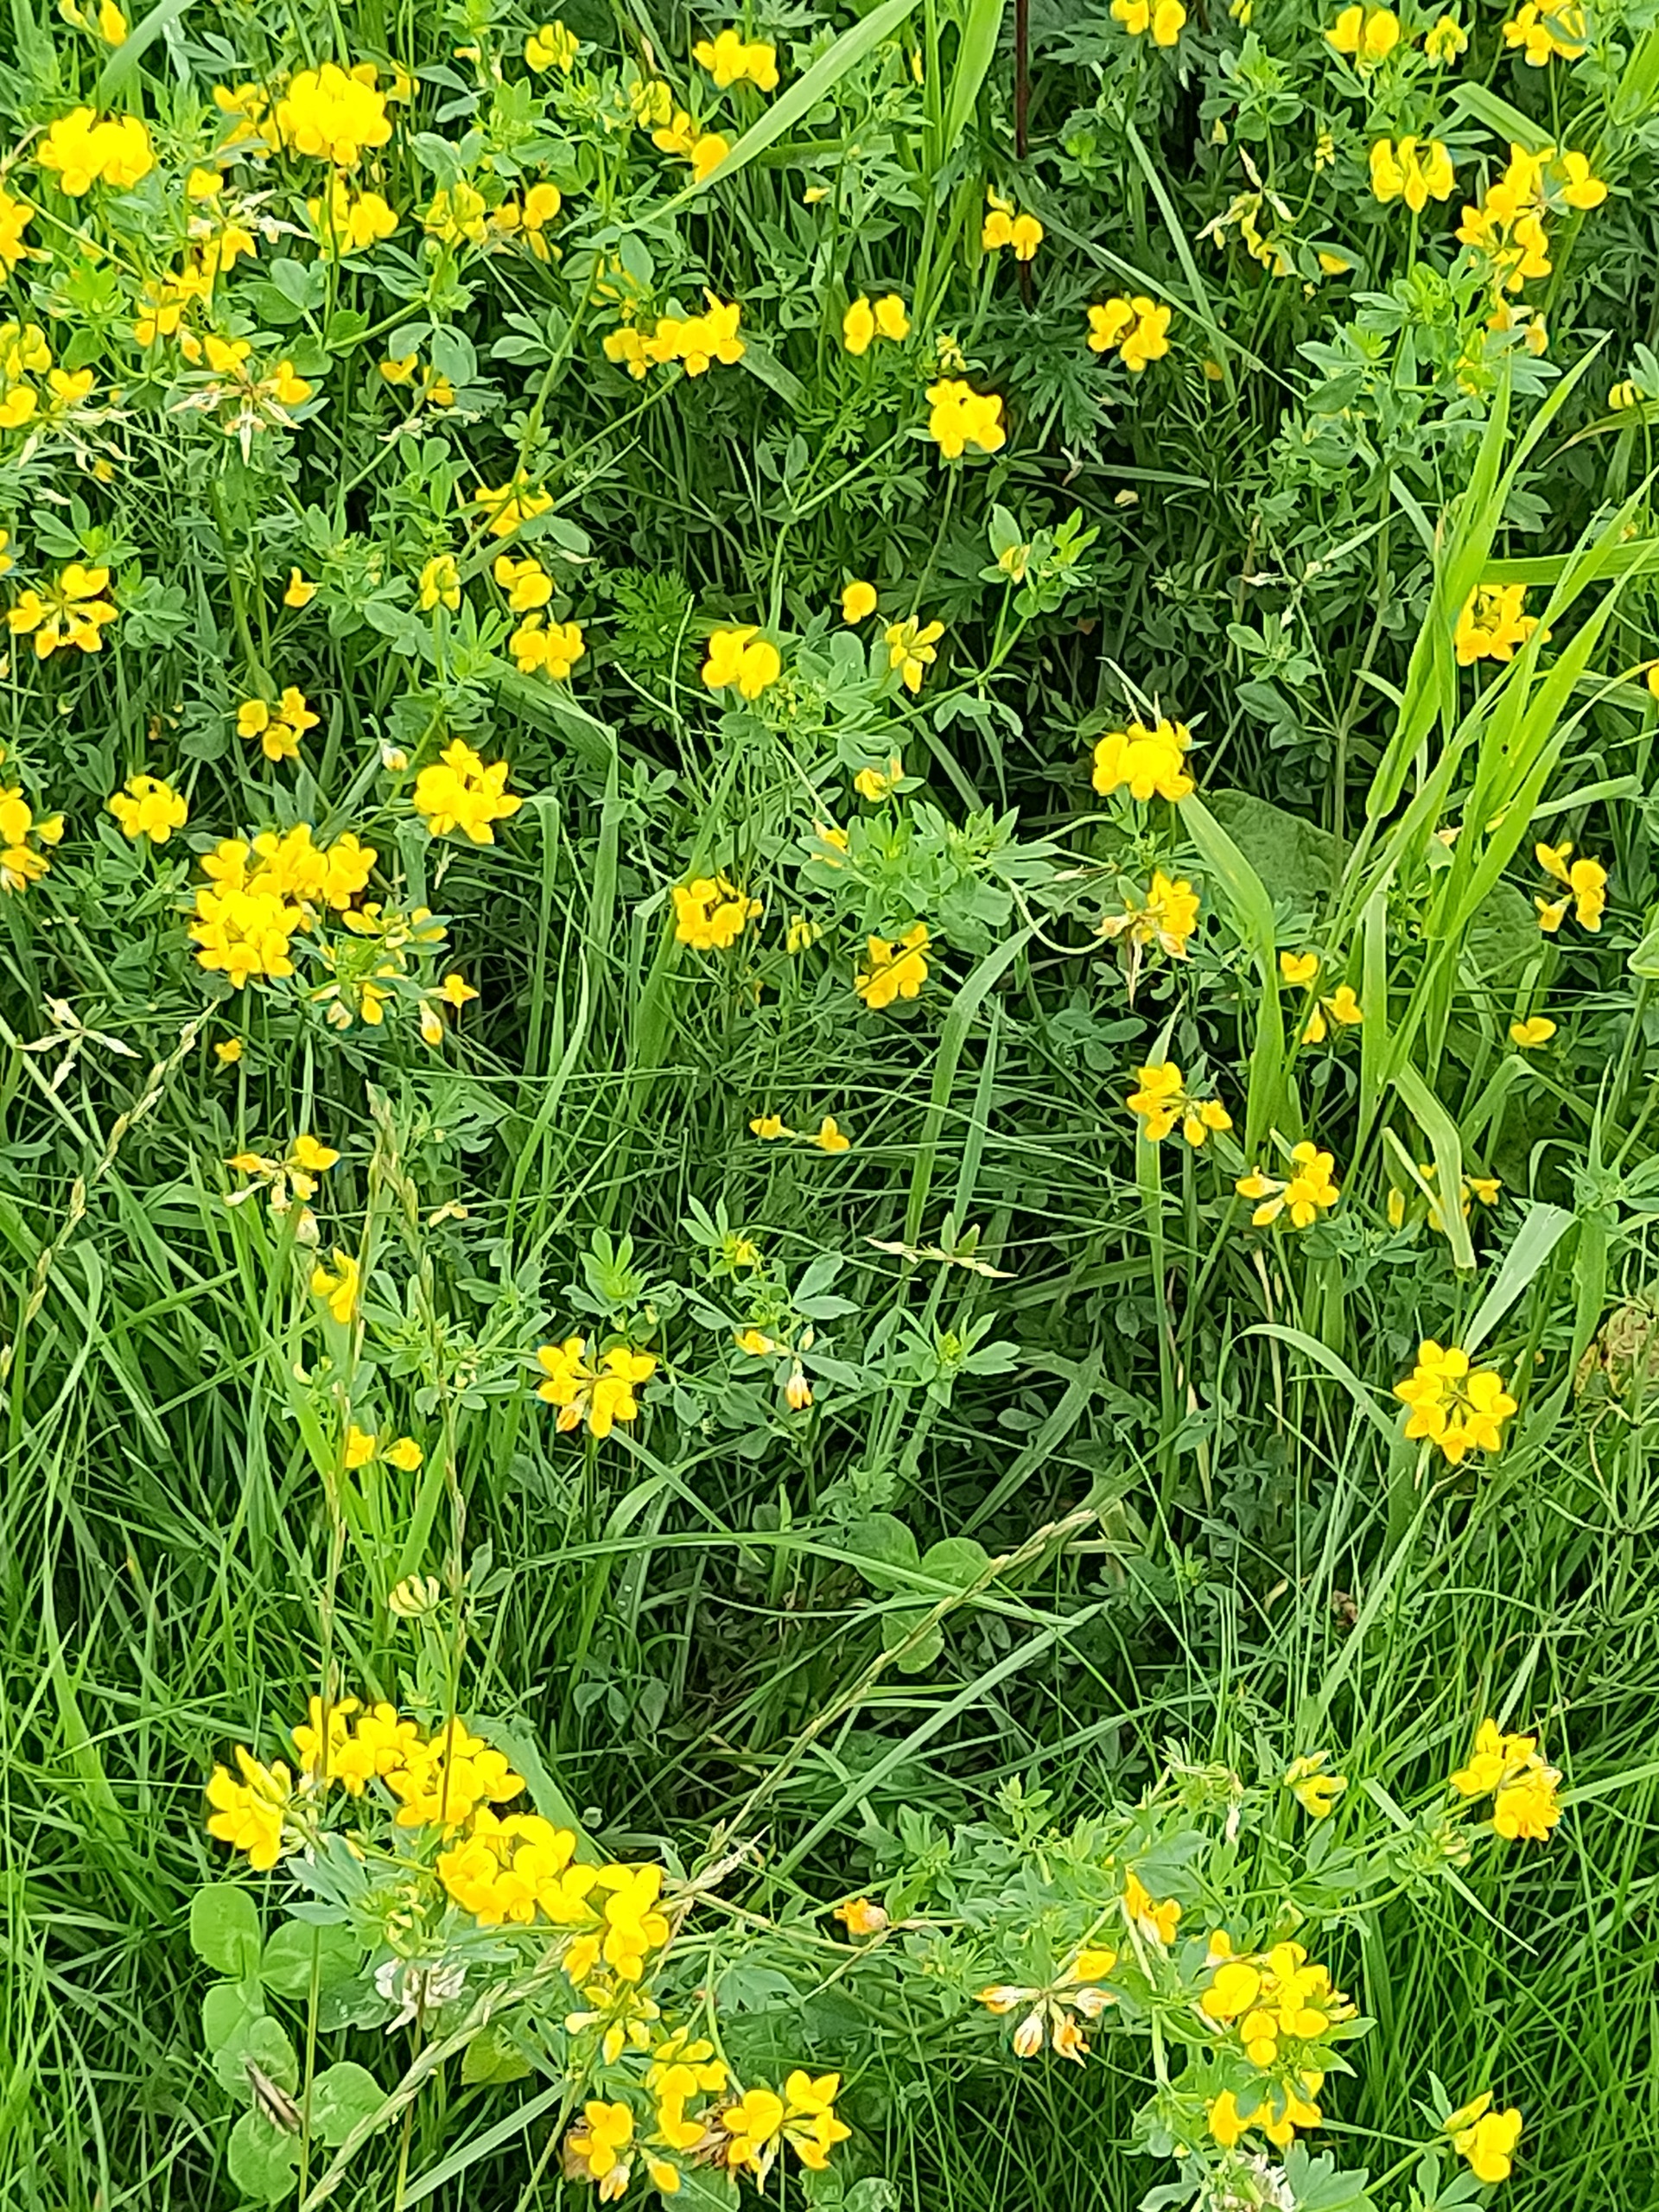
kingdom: Plantae
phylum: Tracheophyta
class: Magnoliopsida
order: Fabales
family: Fabaceae
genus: Lotus
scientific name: Lotus corniculatus
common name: Almindelig kællingetand
